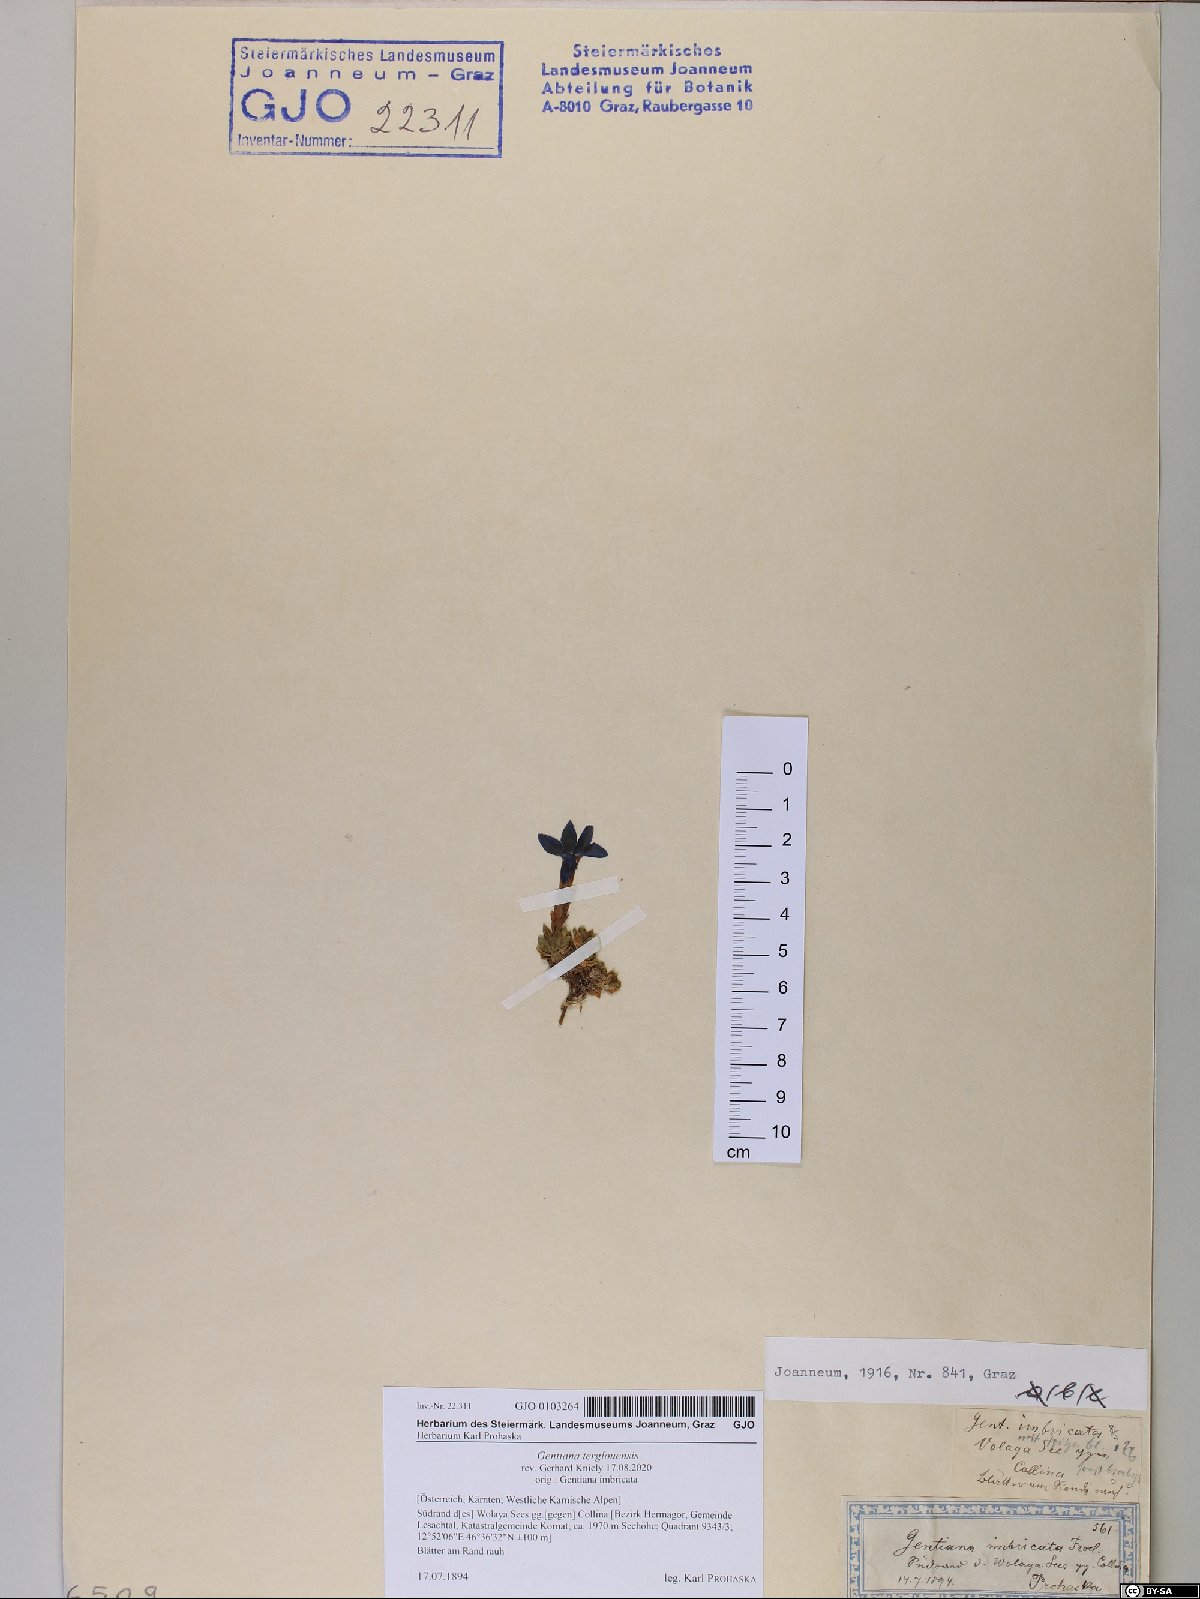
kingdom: Plantae
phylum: Tracheophyta
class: Magnoliopsida
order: Gentianales
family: Gentianaceae
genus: Gentiana
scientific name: Gentiana terglouensis
